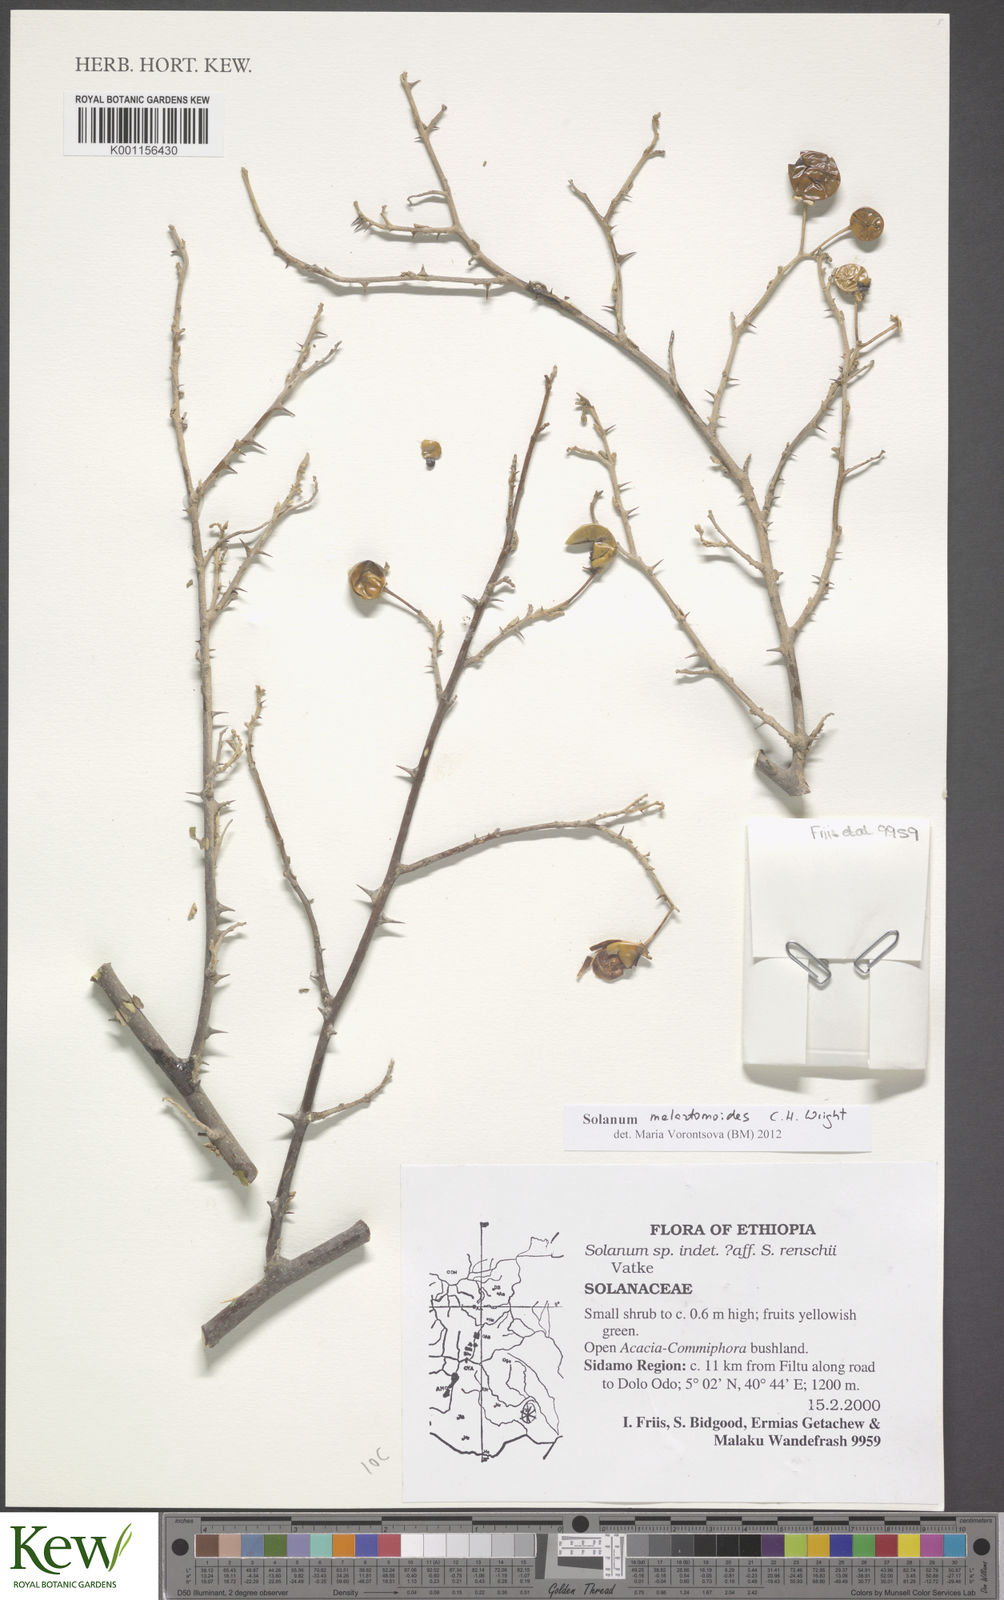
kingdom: Plantae
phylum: Tracheophyta
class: Magnoliopsida
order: Solanales
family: Solanaceae
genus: Solanum
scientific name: Solanum melastomoides
